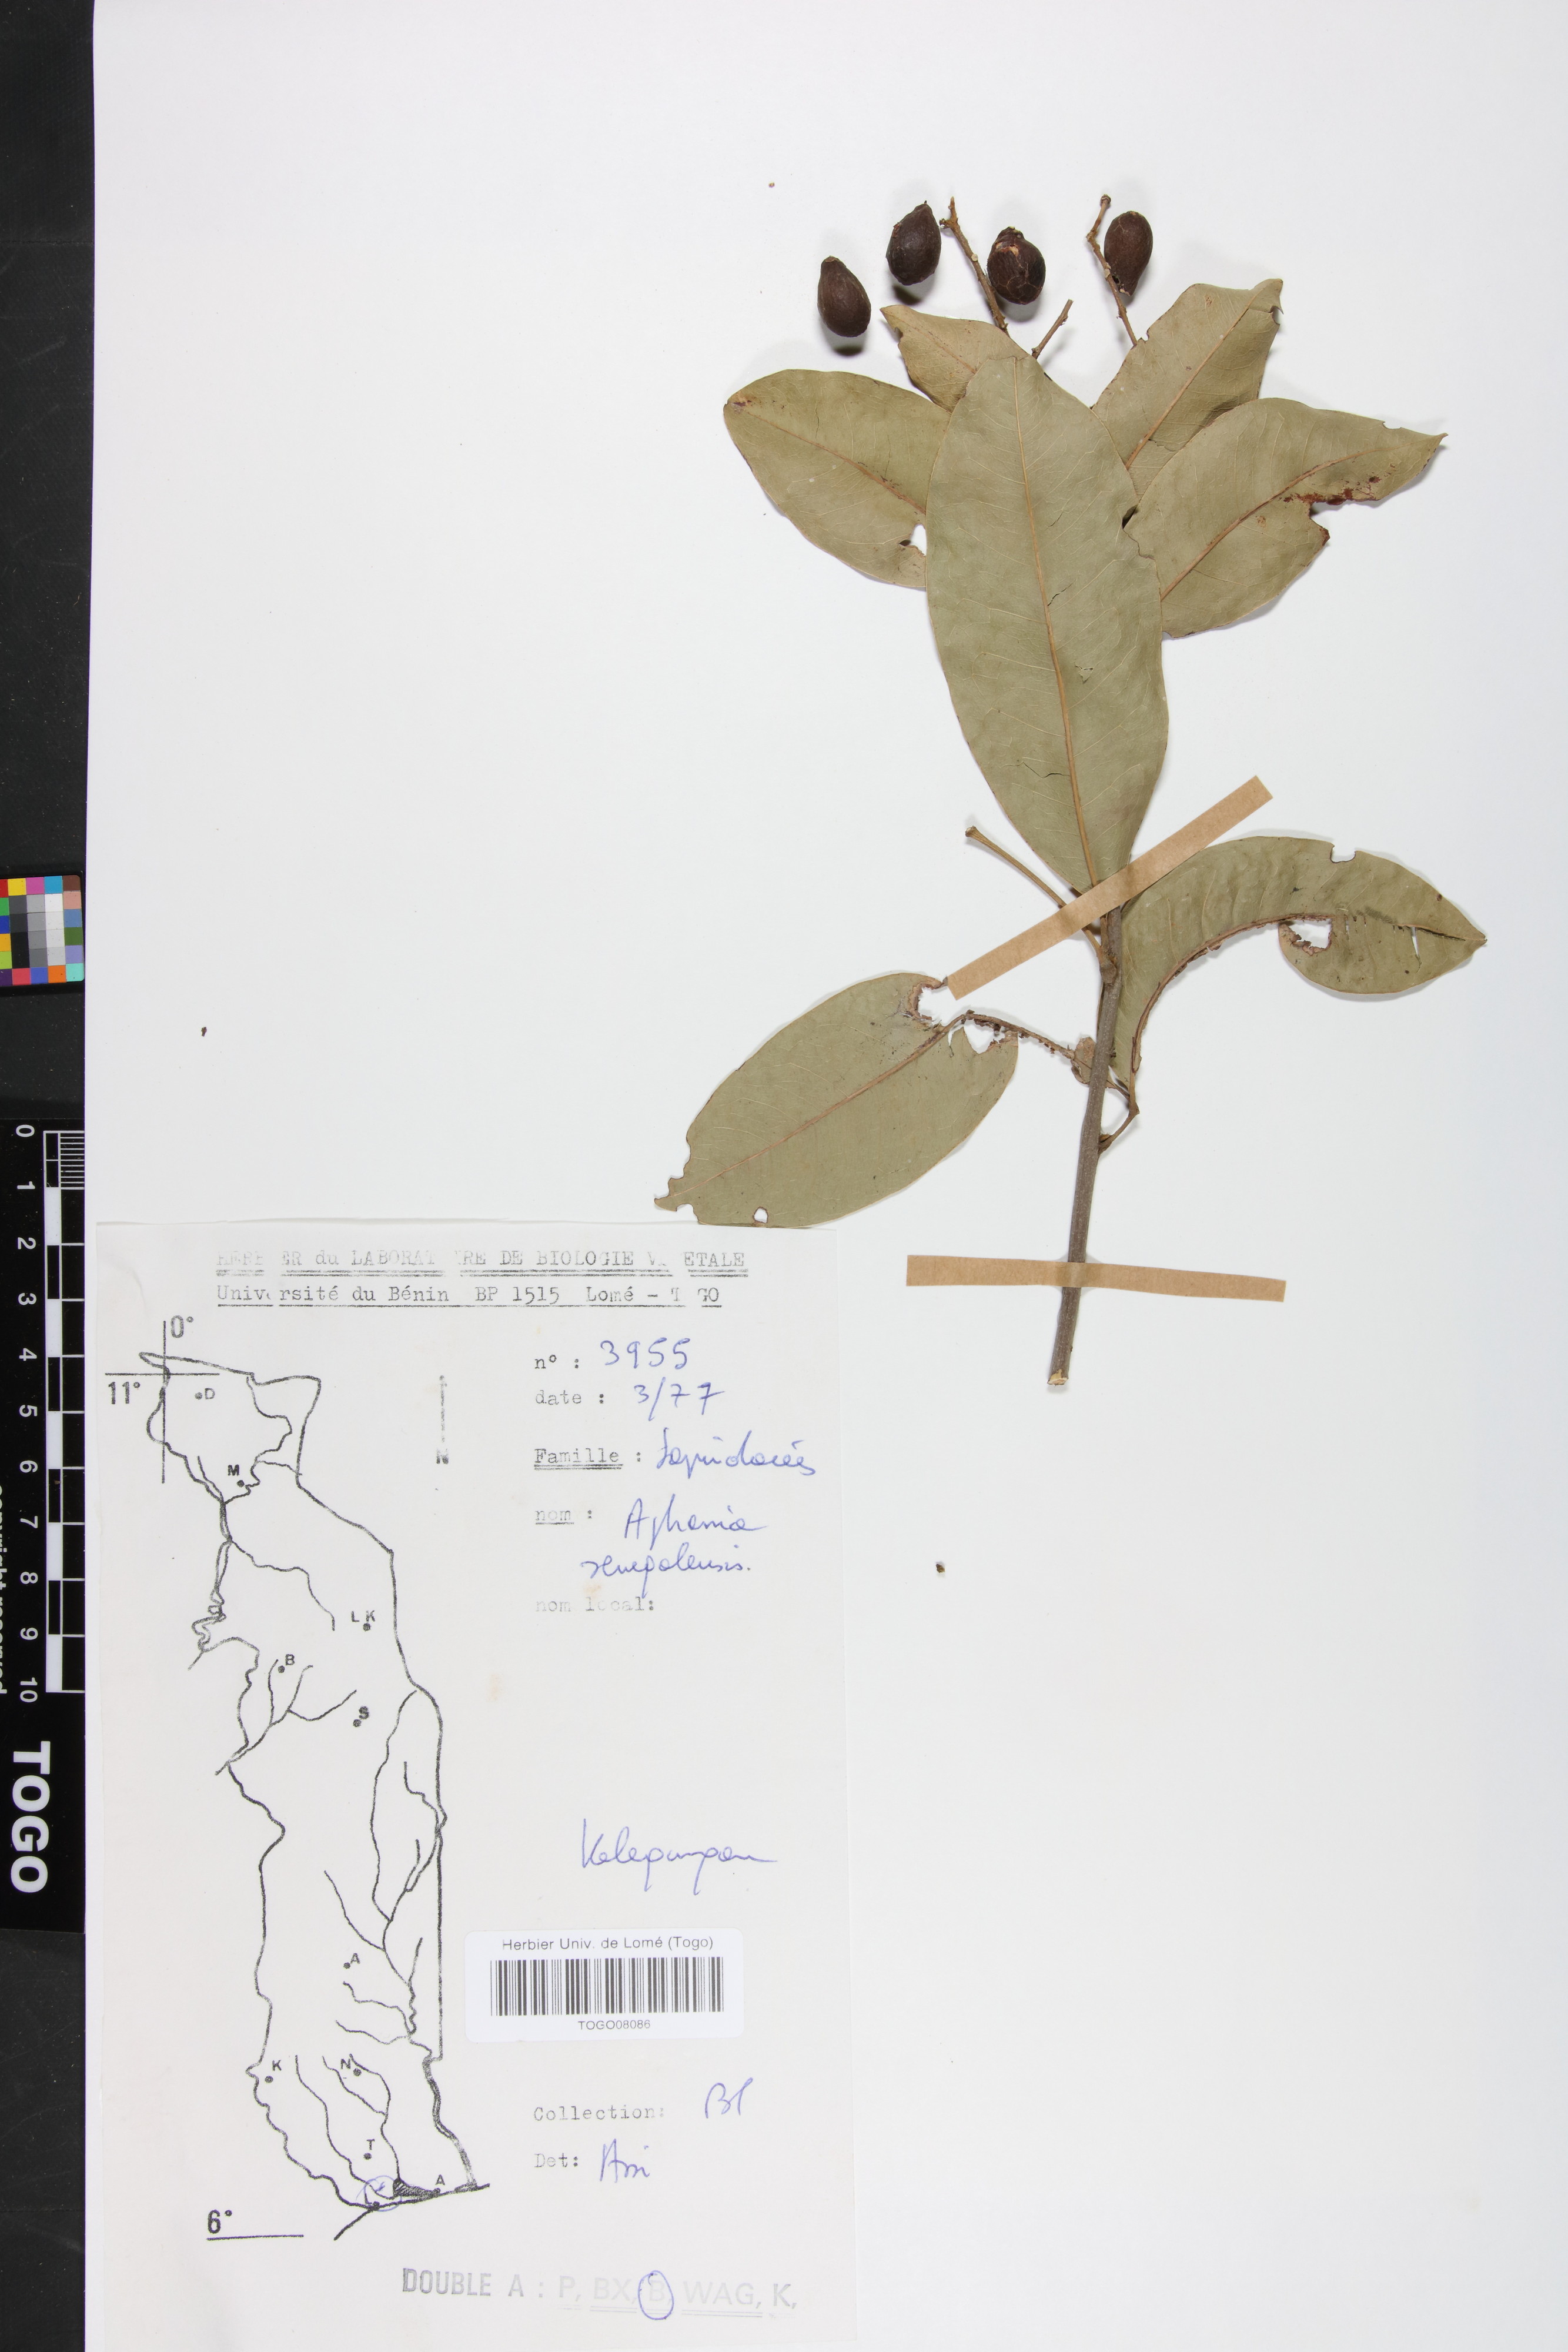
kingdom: Plantae
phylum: Tracheophyta
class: Magnoliopsida
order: Sapindales
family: Sapindaceae
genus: Lepisanthes
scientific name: Lepisanthes senegalensis
